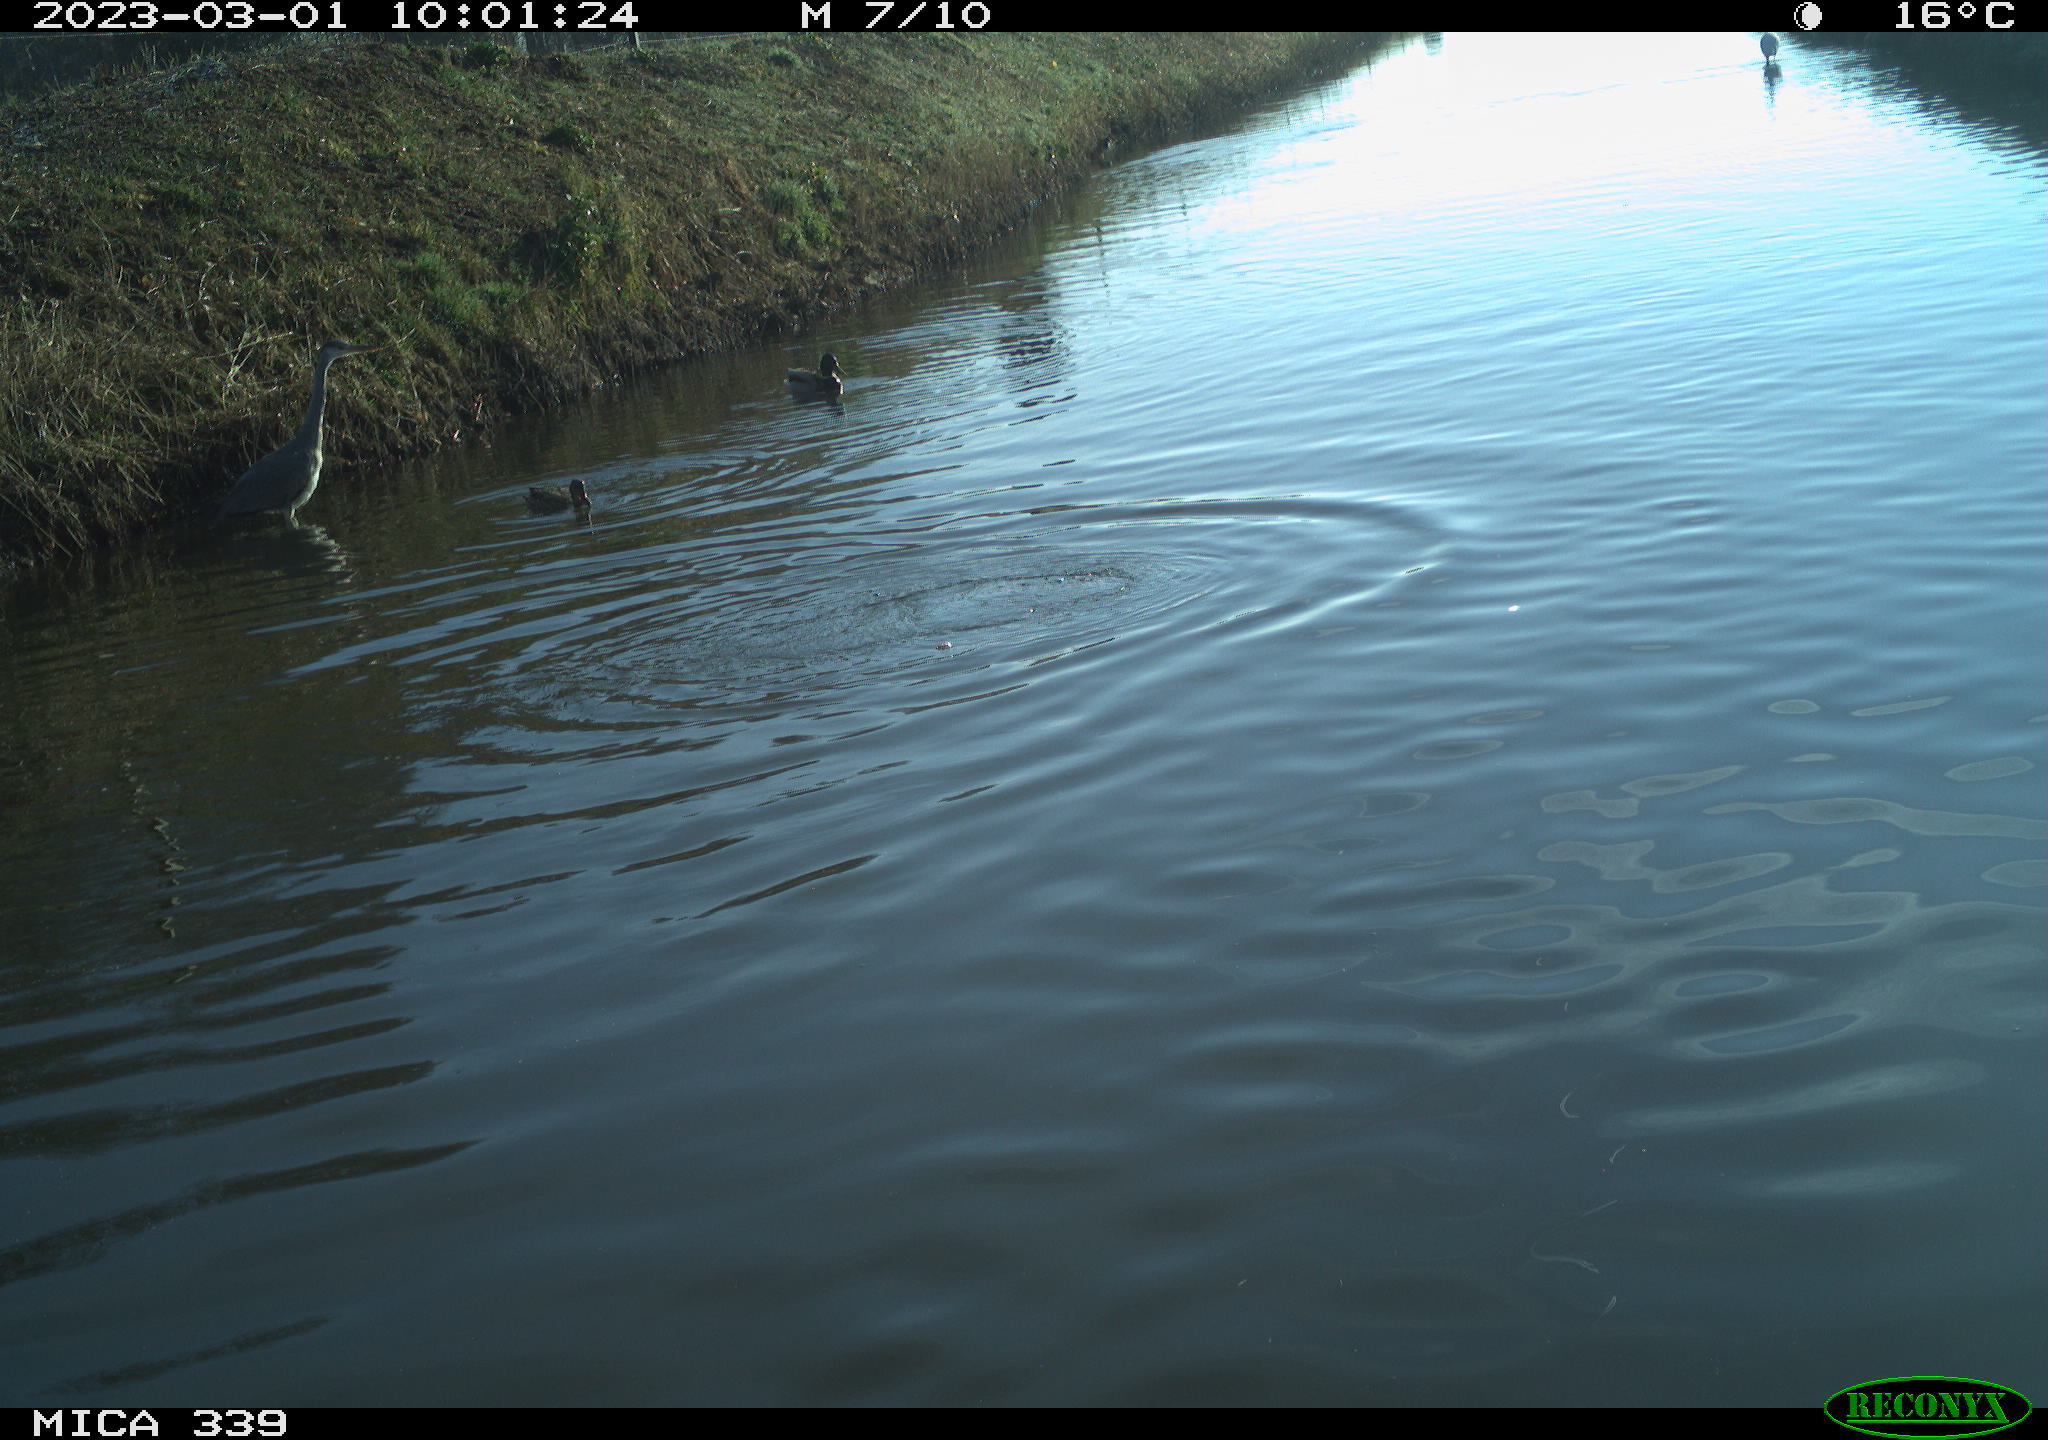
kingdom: Animalia
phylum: Chordata
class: Aves
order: Suliformes
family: Phalacrocoracidae
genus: Phalacrocorax
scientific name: Phalacrocorax carbo
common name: Great cormorant
